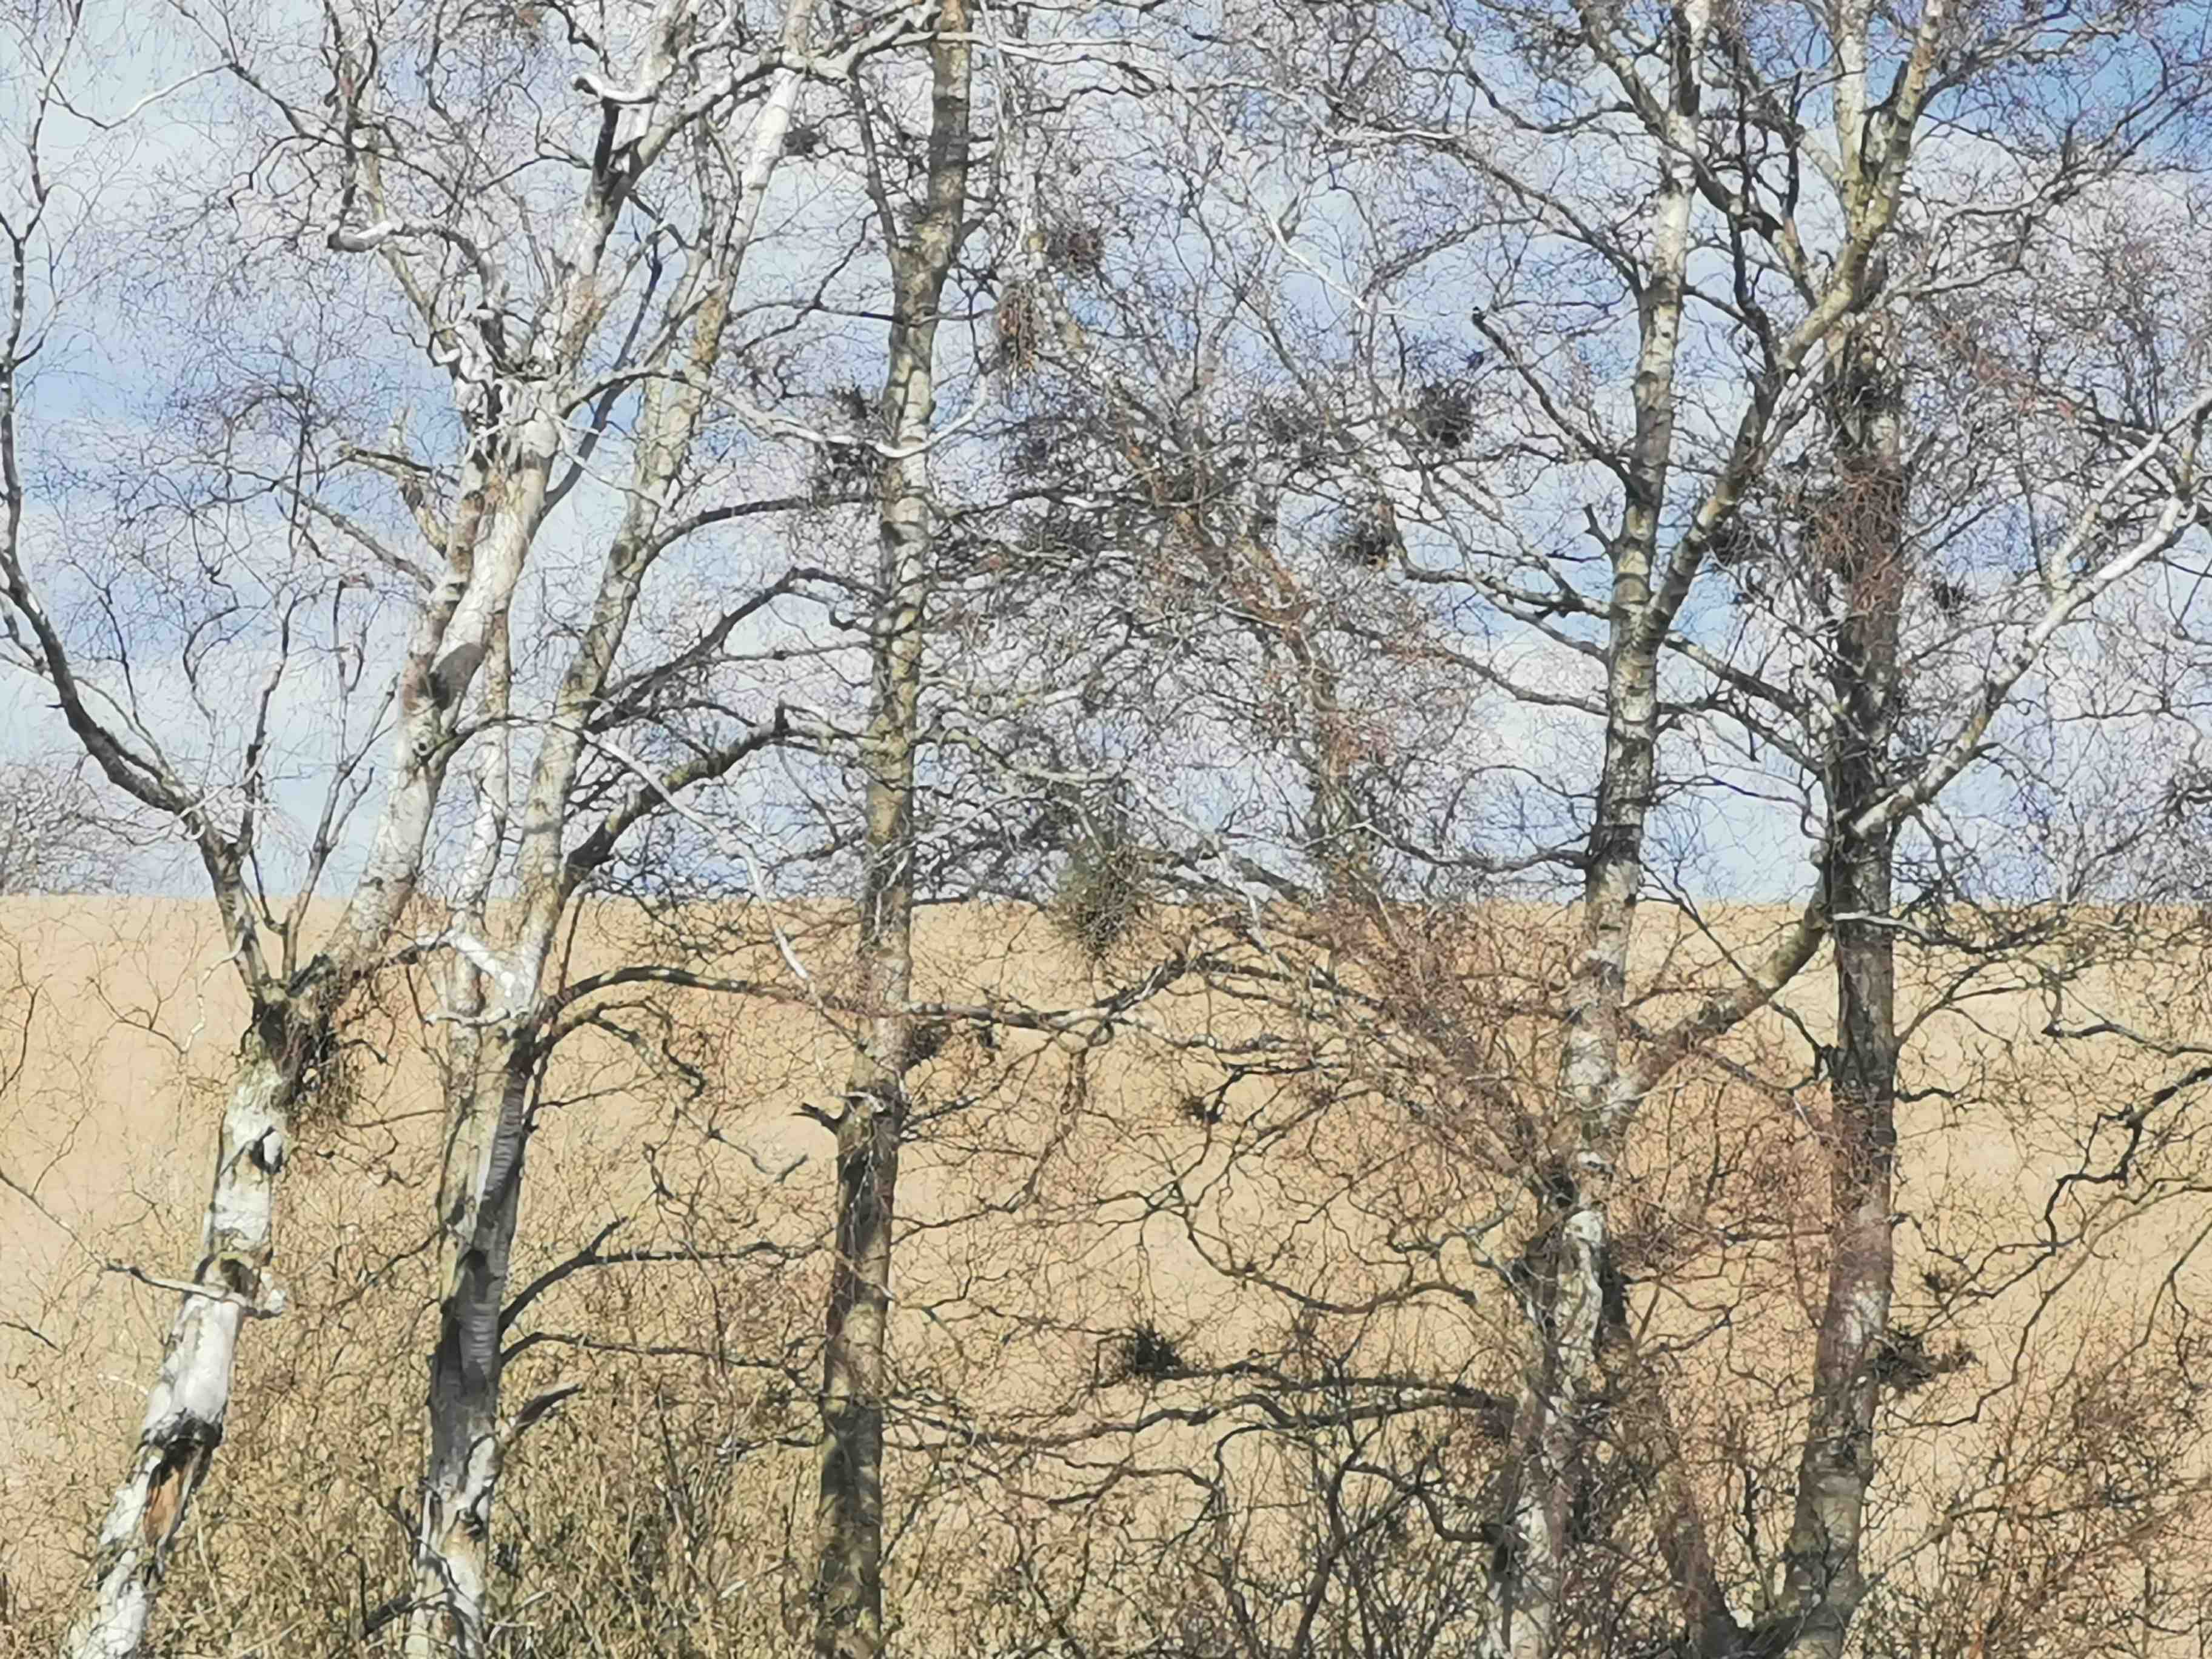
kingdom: Fungi
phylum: Ascomycota
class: Taphrinomycetes
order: Taphrinales
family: Taphrinaceae
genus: Taphrina
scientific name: Taphrina betulina
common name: hekse-sækdug
